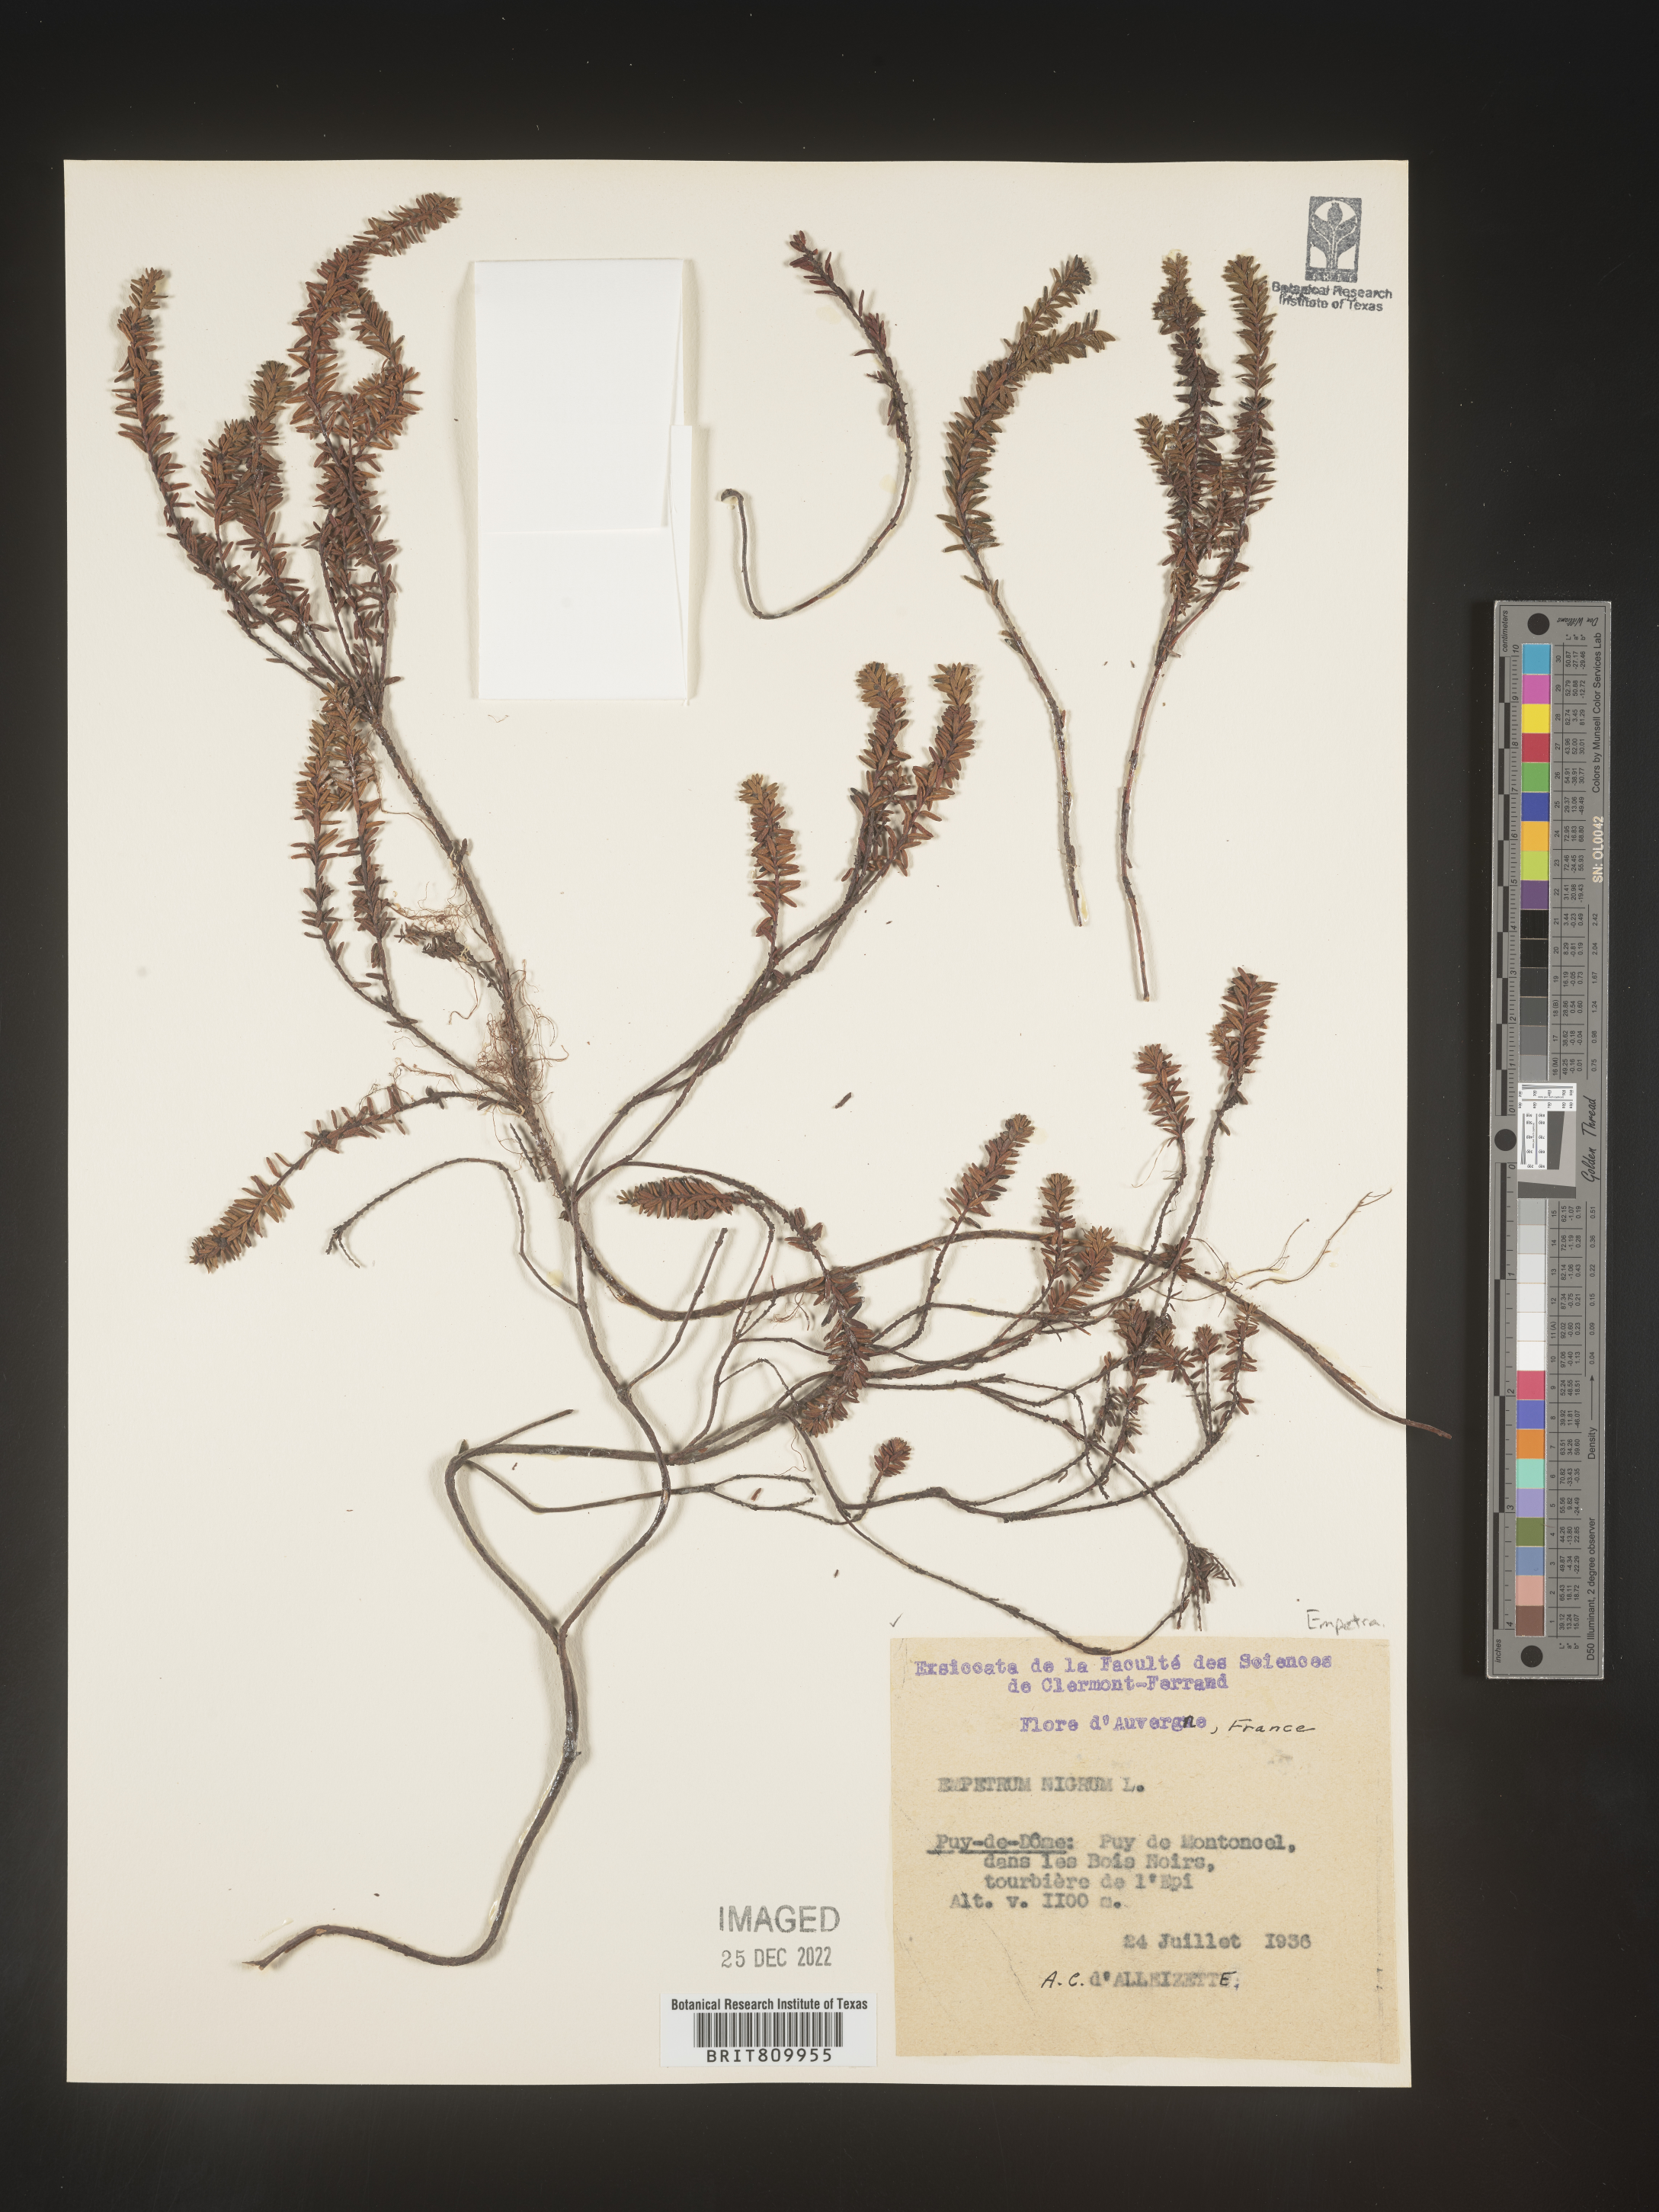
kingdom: Plantae
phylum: Tracheophyta
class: Magnoliopsida
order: Ericales
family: Ericaceae
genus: Empetrum
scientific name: Empetrum
